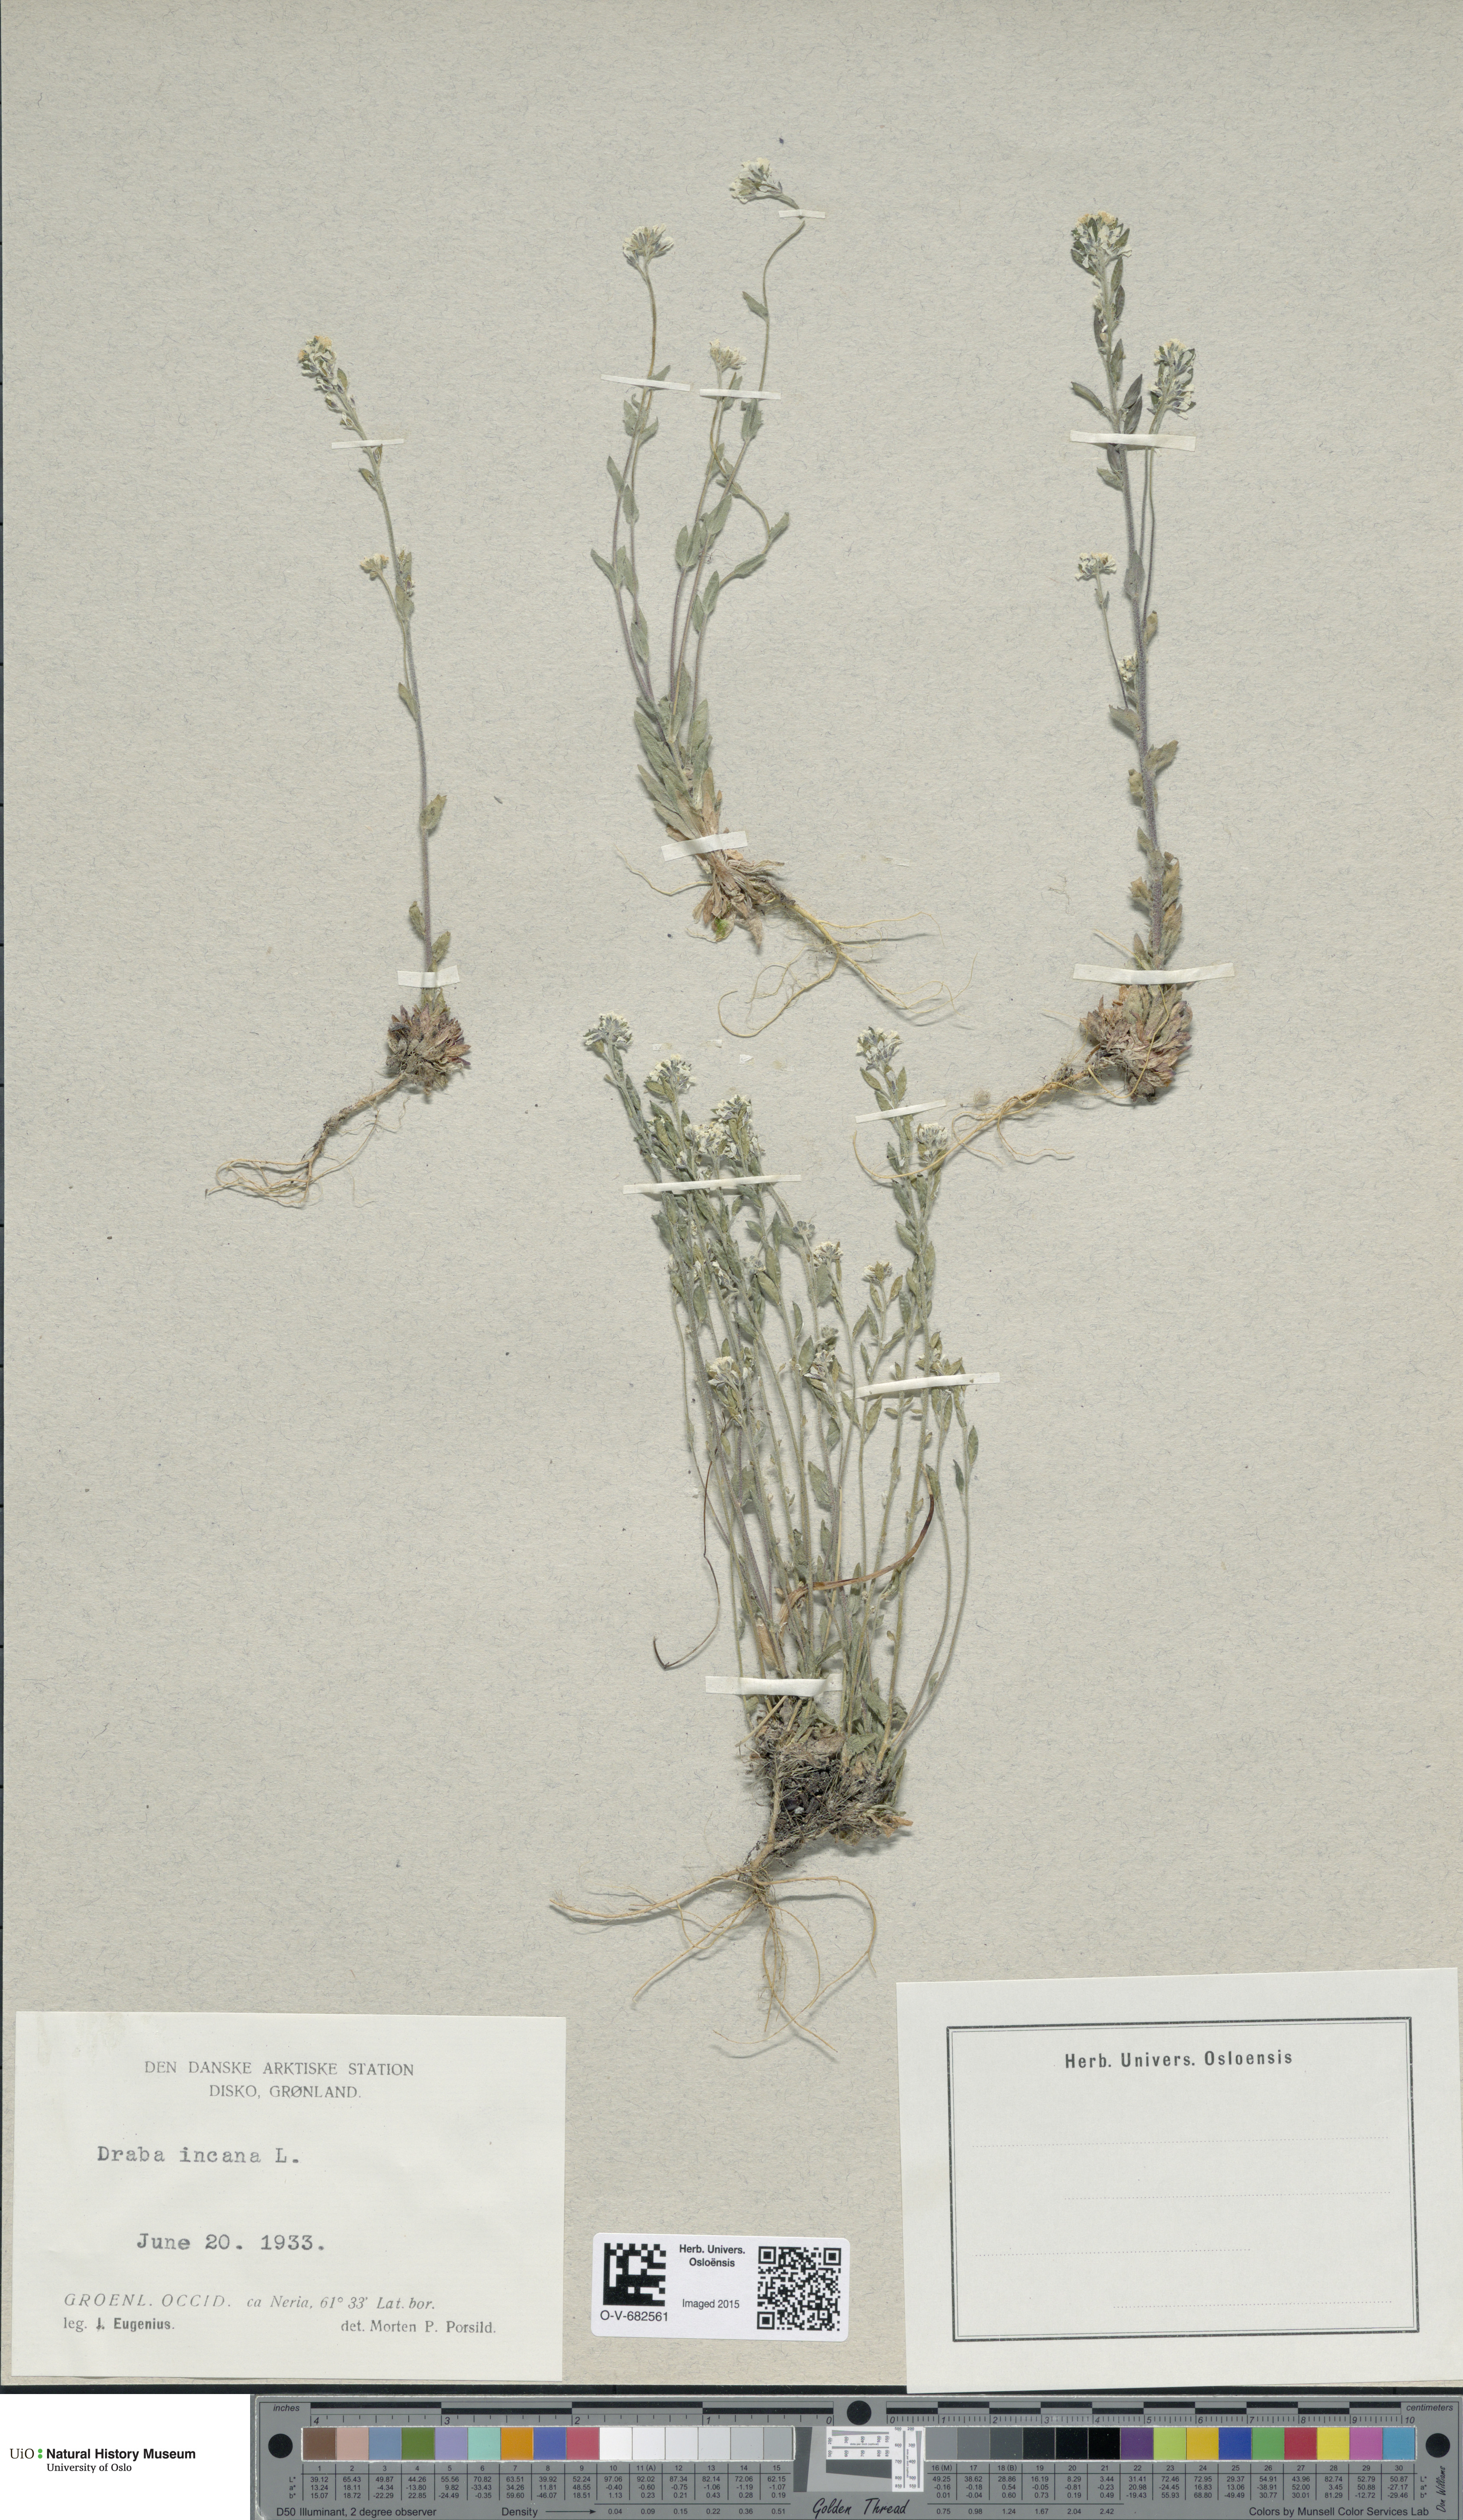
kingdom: Plantae
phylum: Tracheophyta
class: Magnoliopsida
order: Brassicales
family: Brassicaceae
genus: Draba
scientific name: Draba incana
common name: Hoary whitlow-grass
